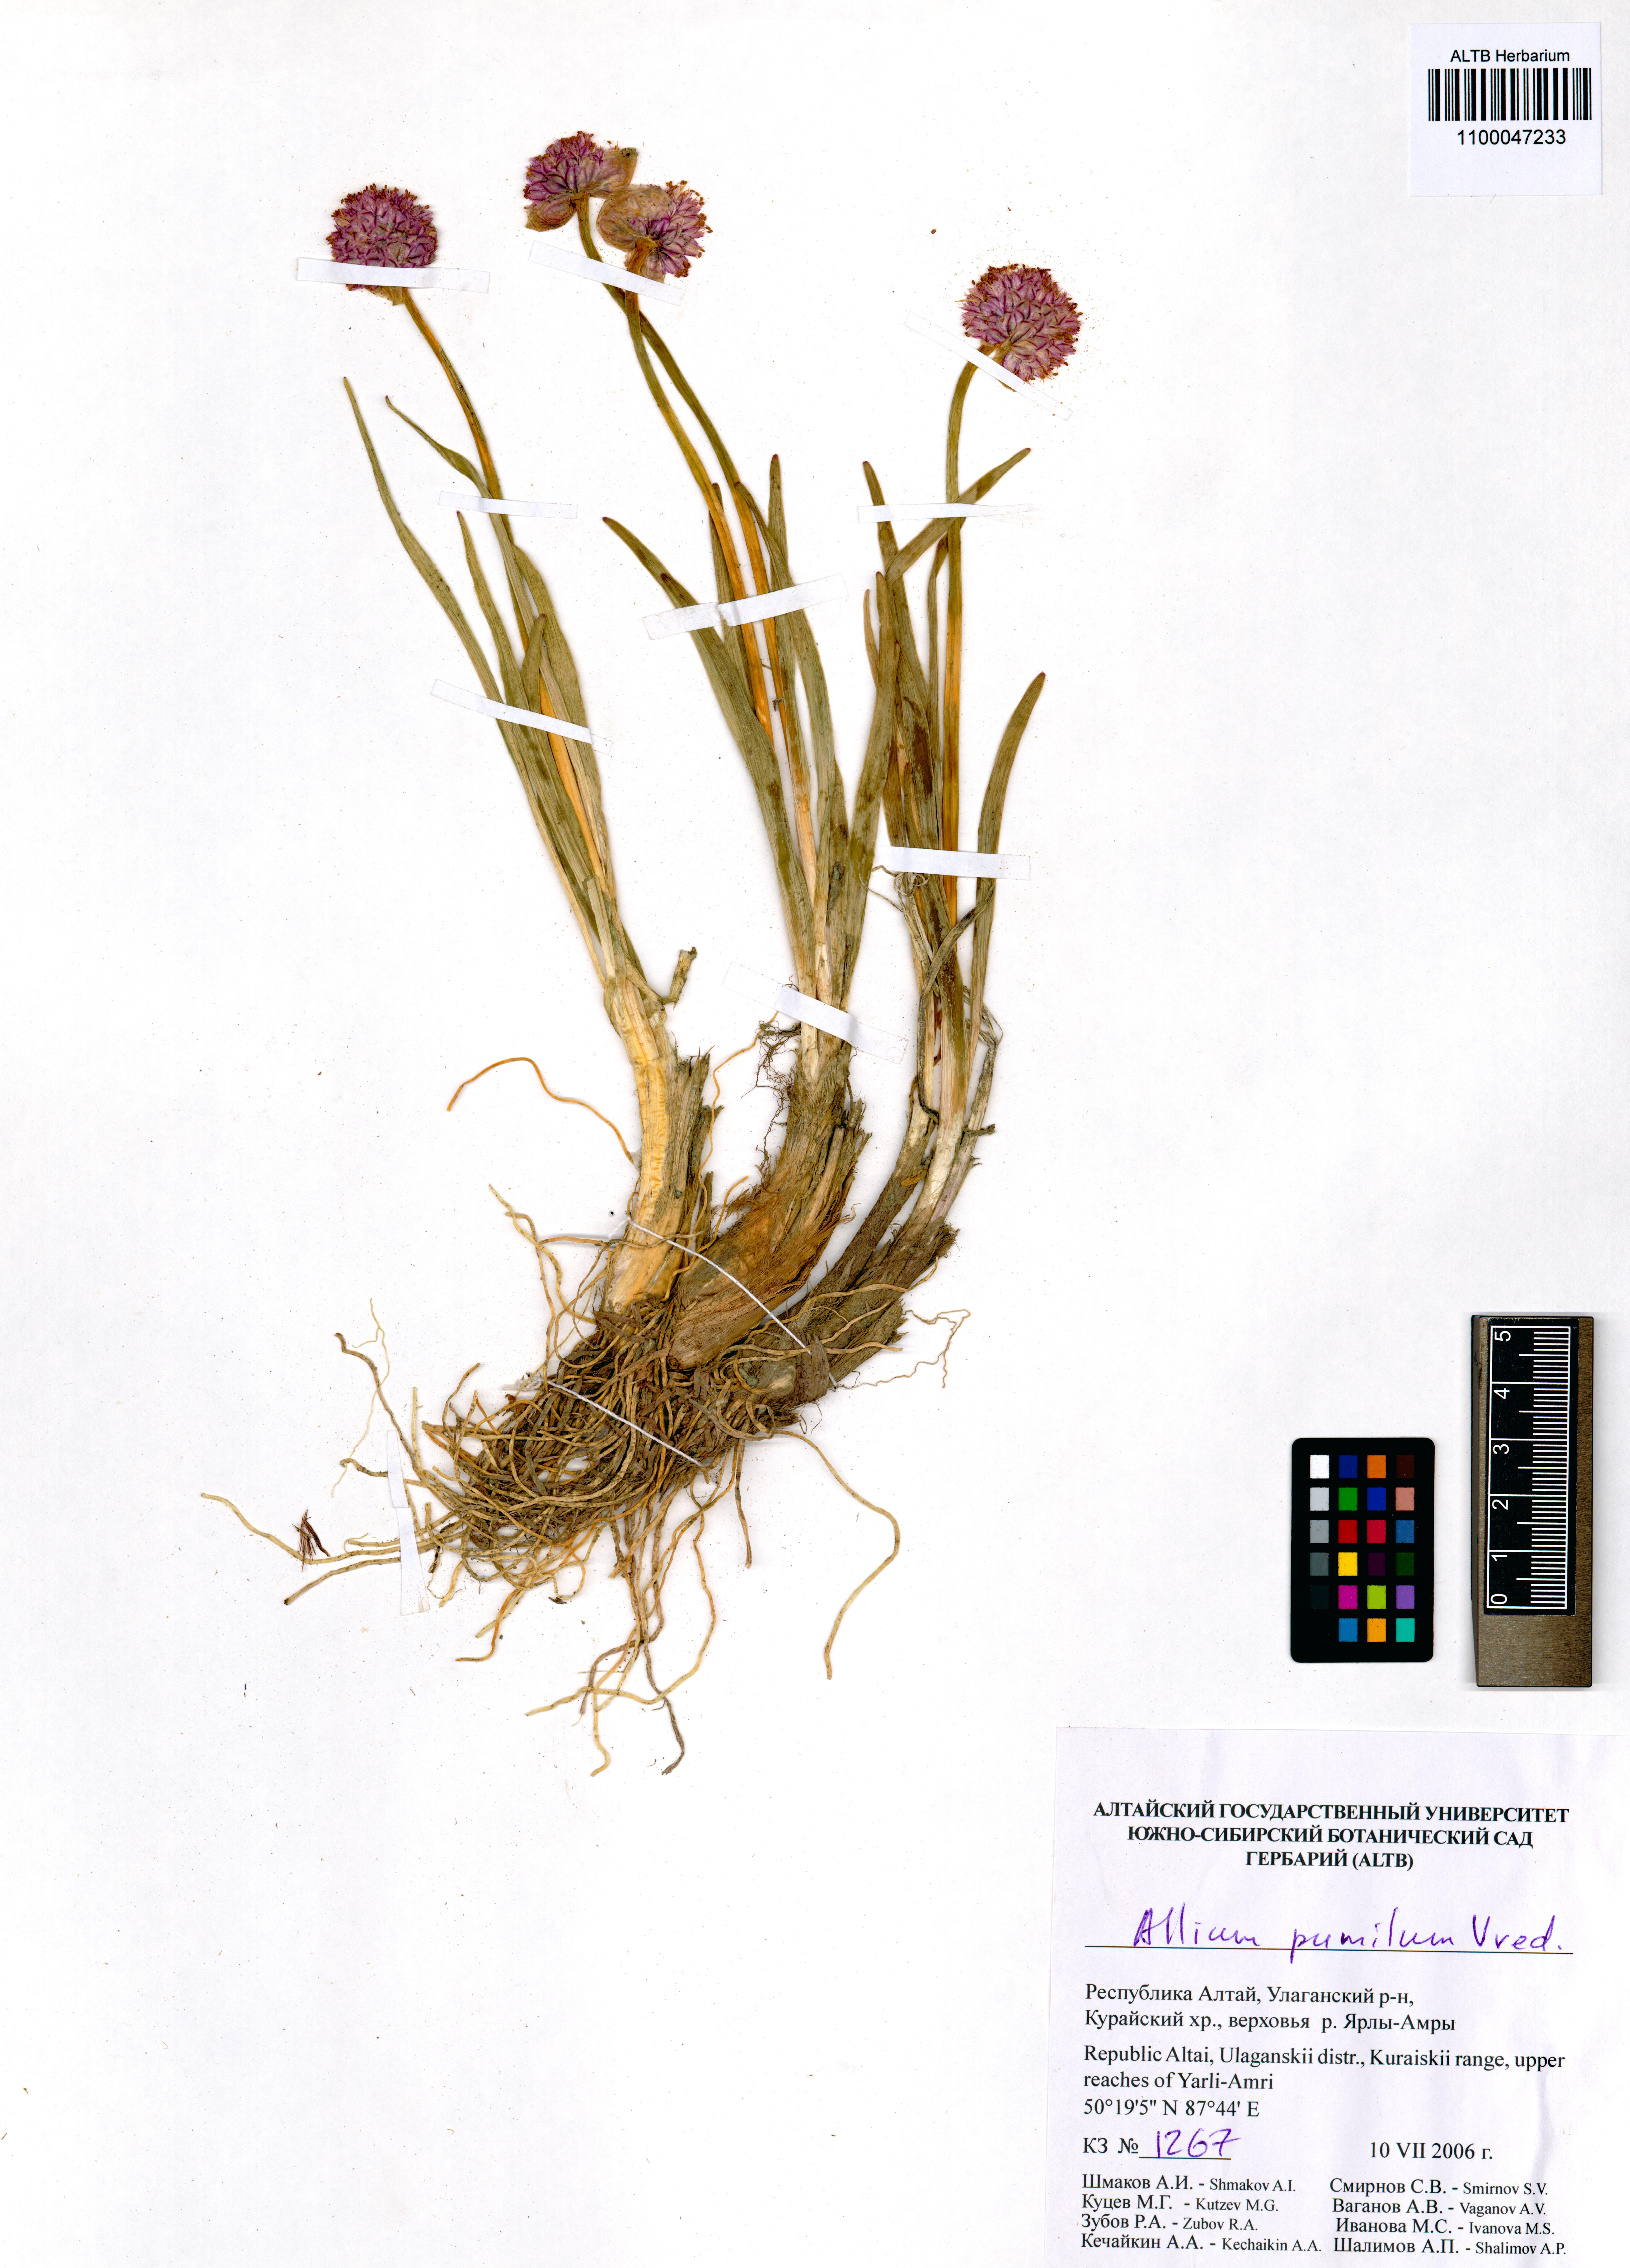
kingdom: Plantae
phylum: Tracheophyta
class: Liliopsida
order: Asparagales
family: Amaryllidaceae
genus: Allium
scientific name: Allium pumilum
